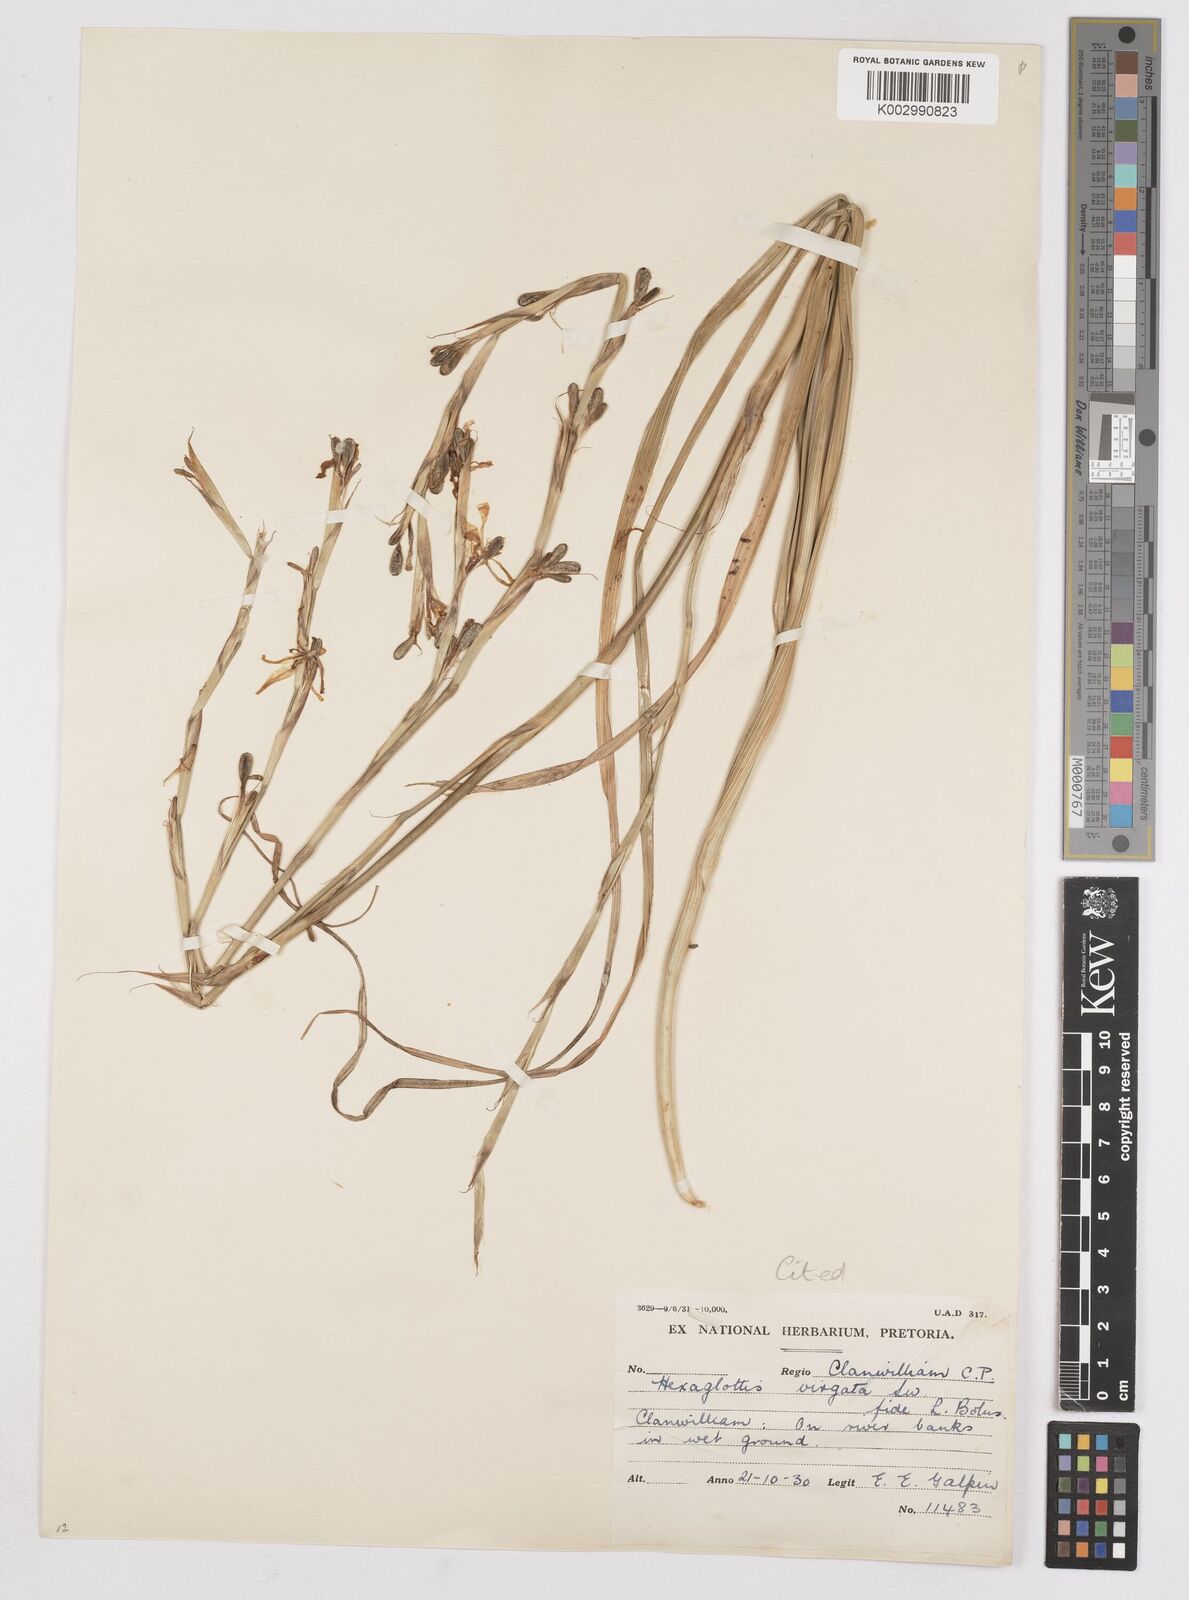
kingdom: Plantae
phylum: Tracheophyta
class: Liliopsida
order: Asparagales
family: Iridaceae
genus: Moraea
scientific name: Moraea riparia
